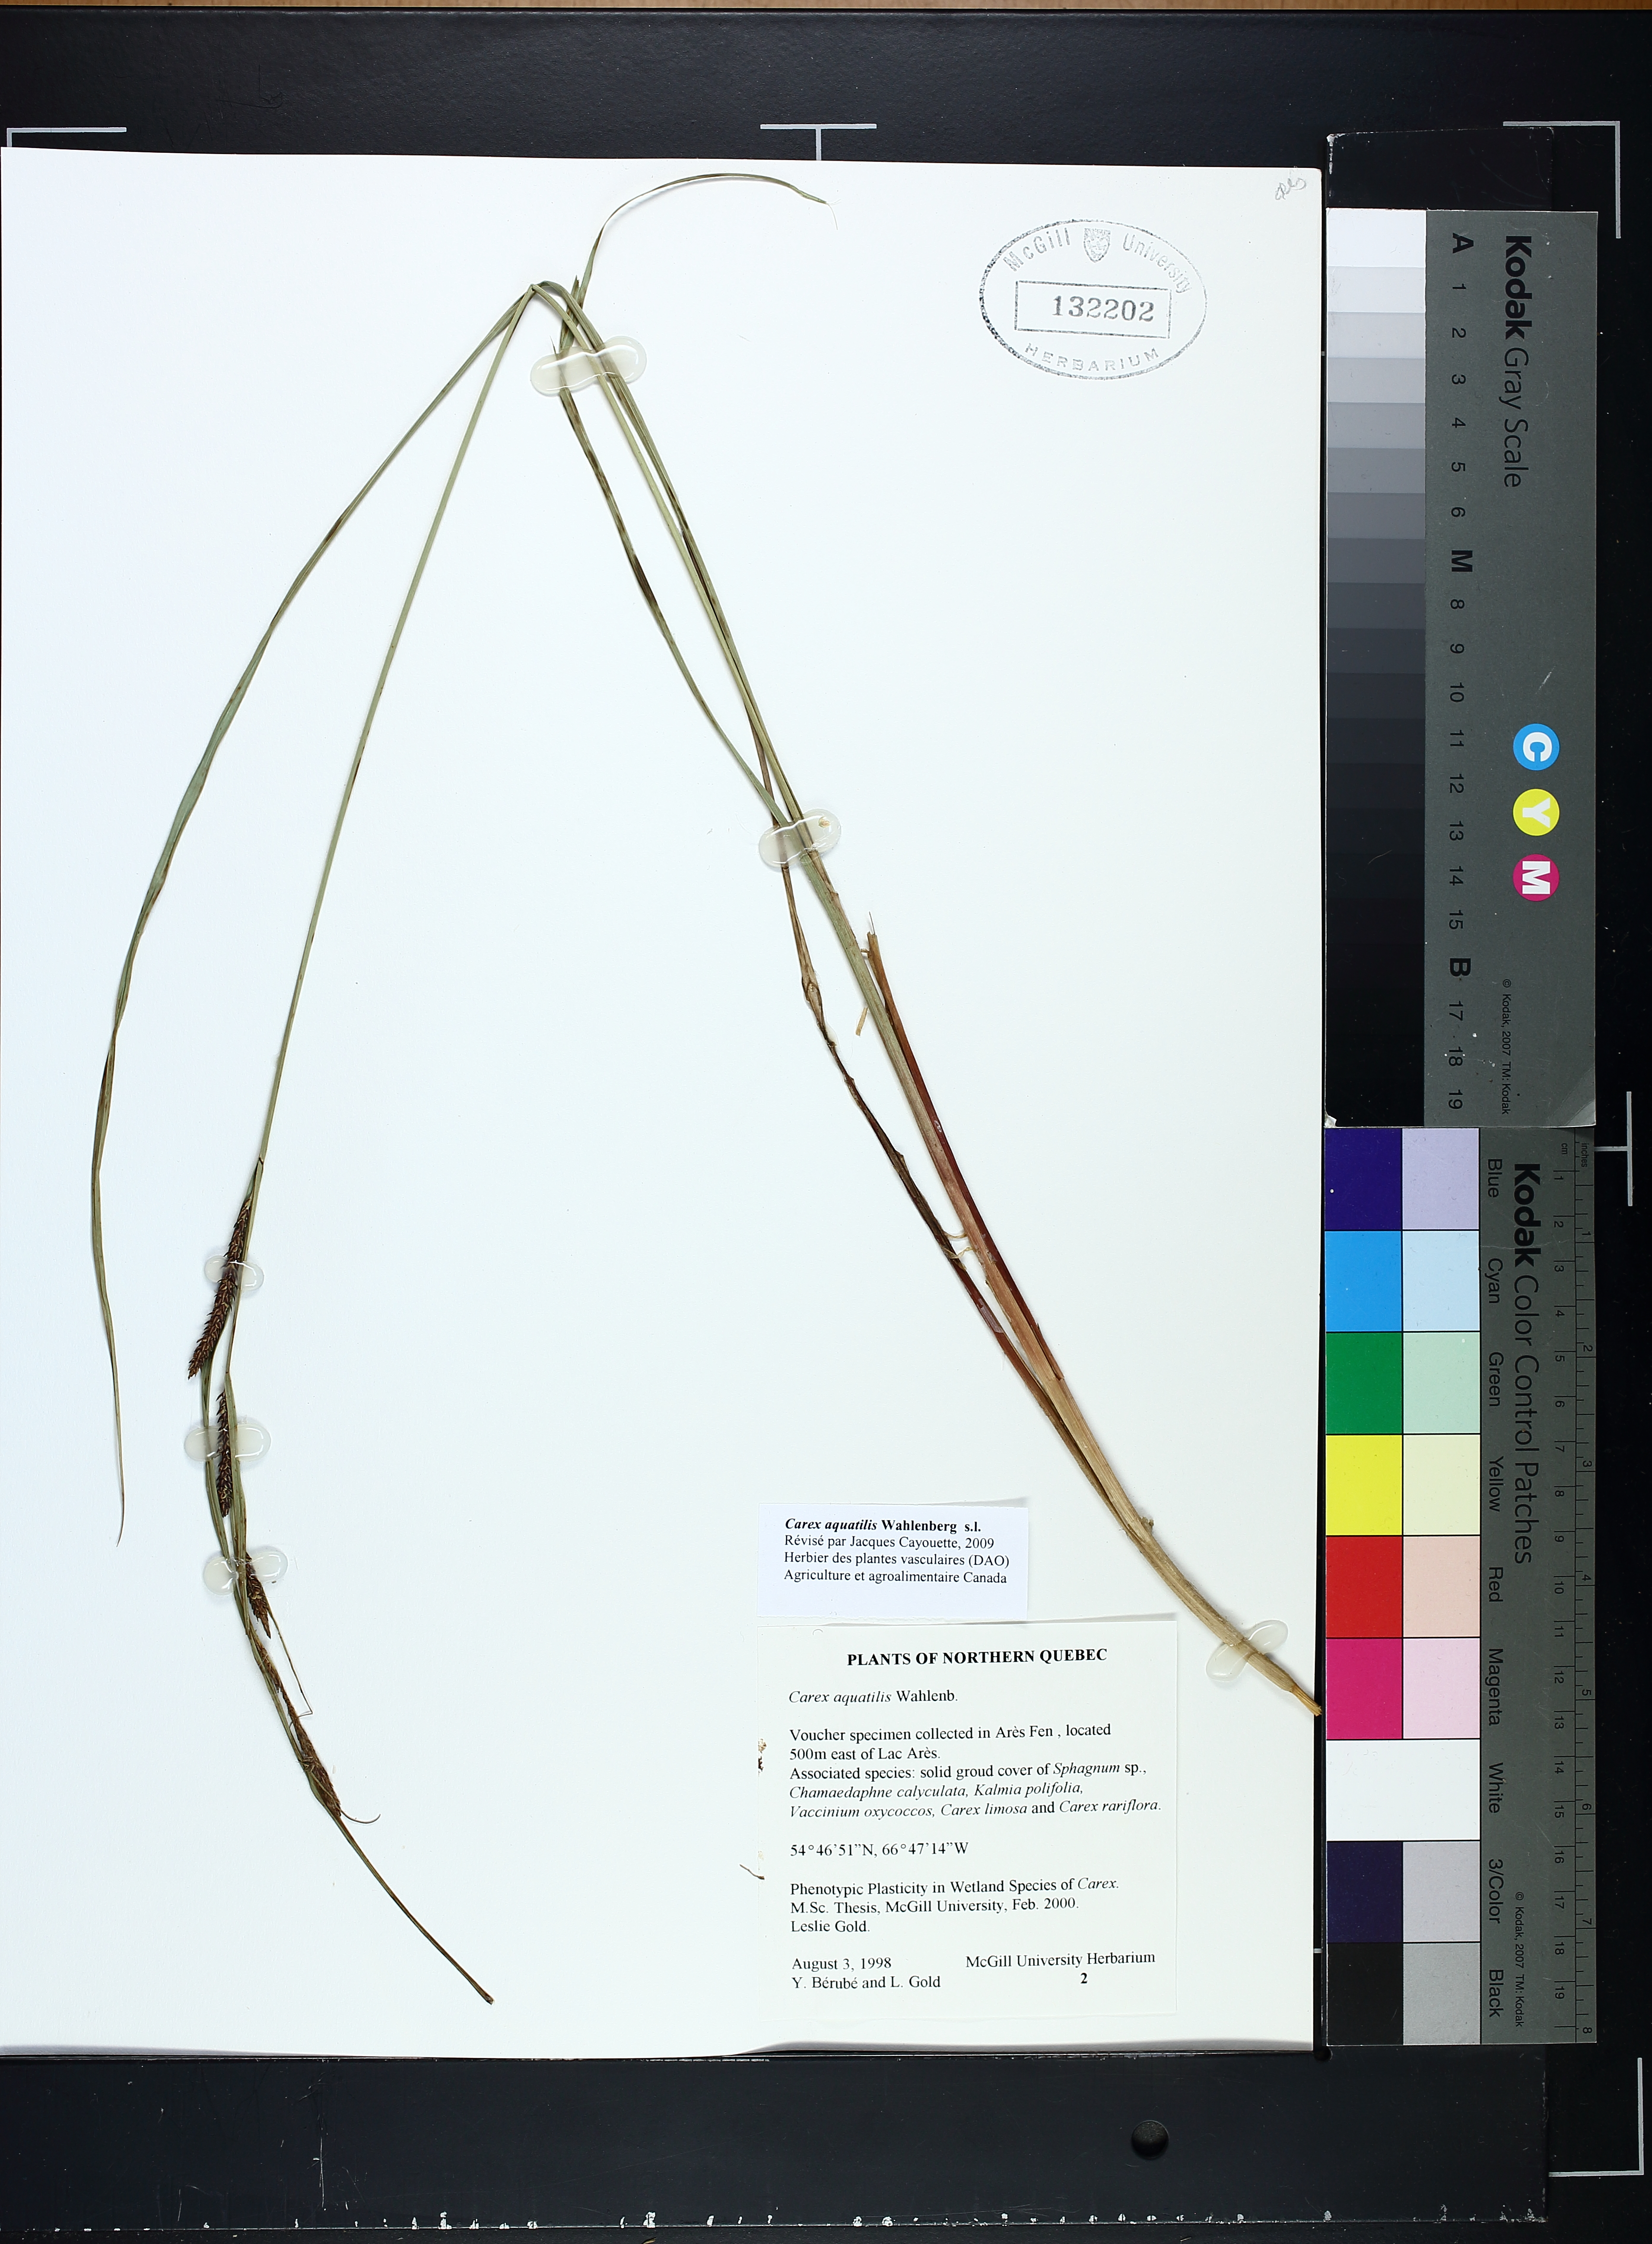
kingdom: Plantae
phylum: Tracheophyta
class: Liliopsida
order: Poales
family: Cyperaceae
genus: Carex
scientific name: Carex aquatilis
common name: Water sedge
